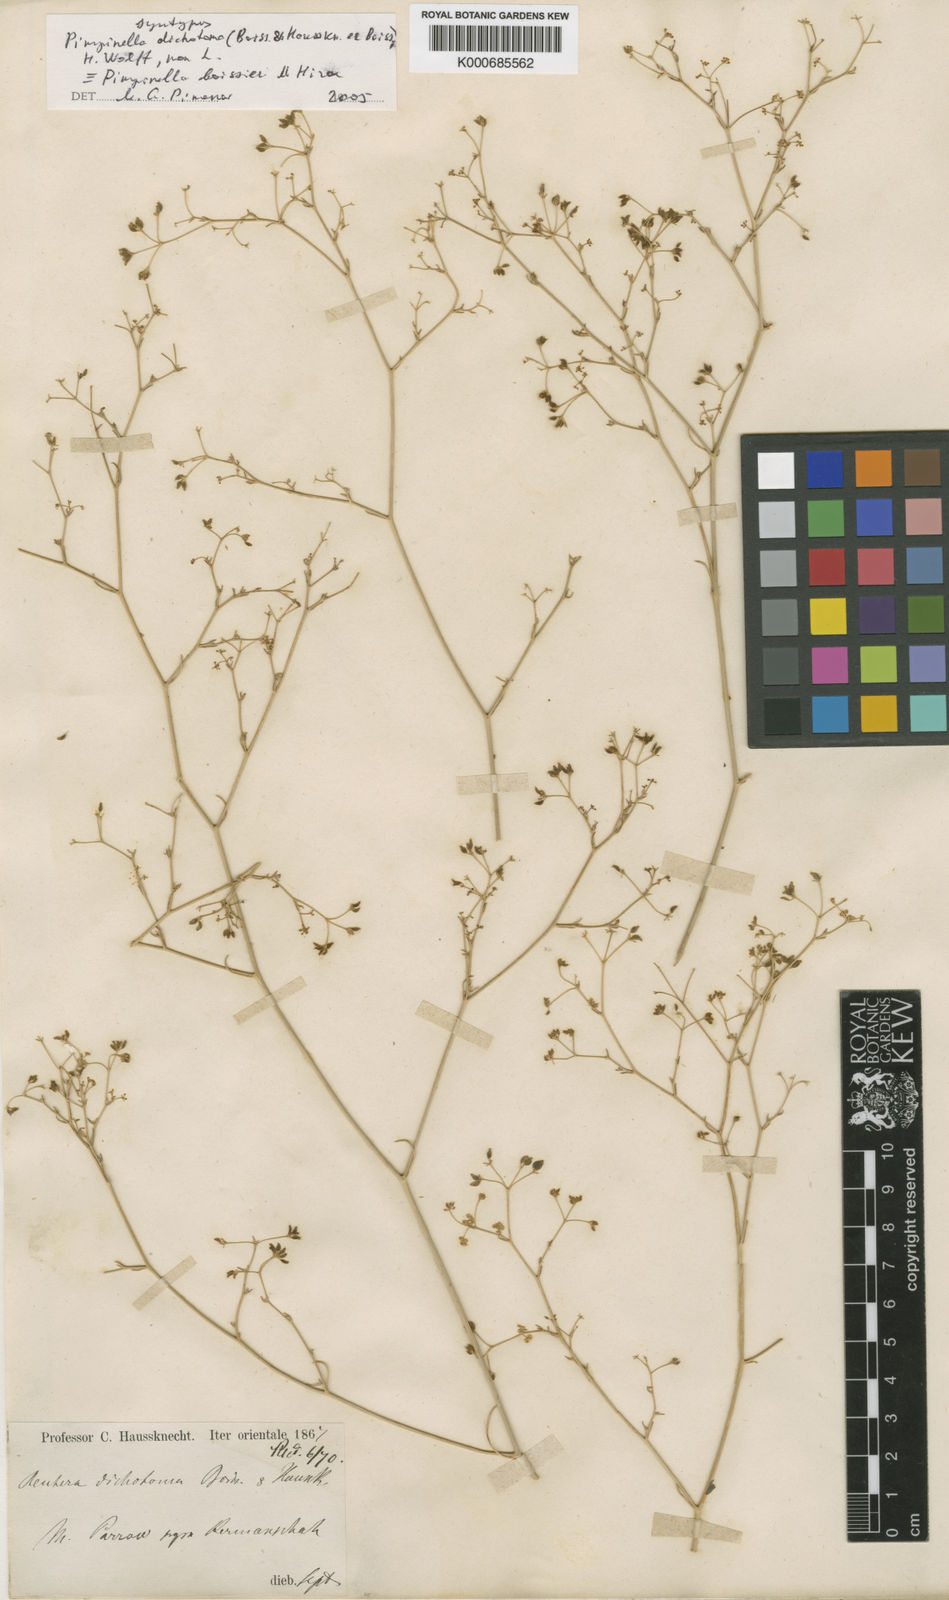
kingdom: Plantae
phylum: Tracheophyta
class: Magnoliopsida
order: Apiales
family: Apiaceae
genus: Pimpinella
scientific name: Pimpinella
